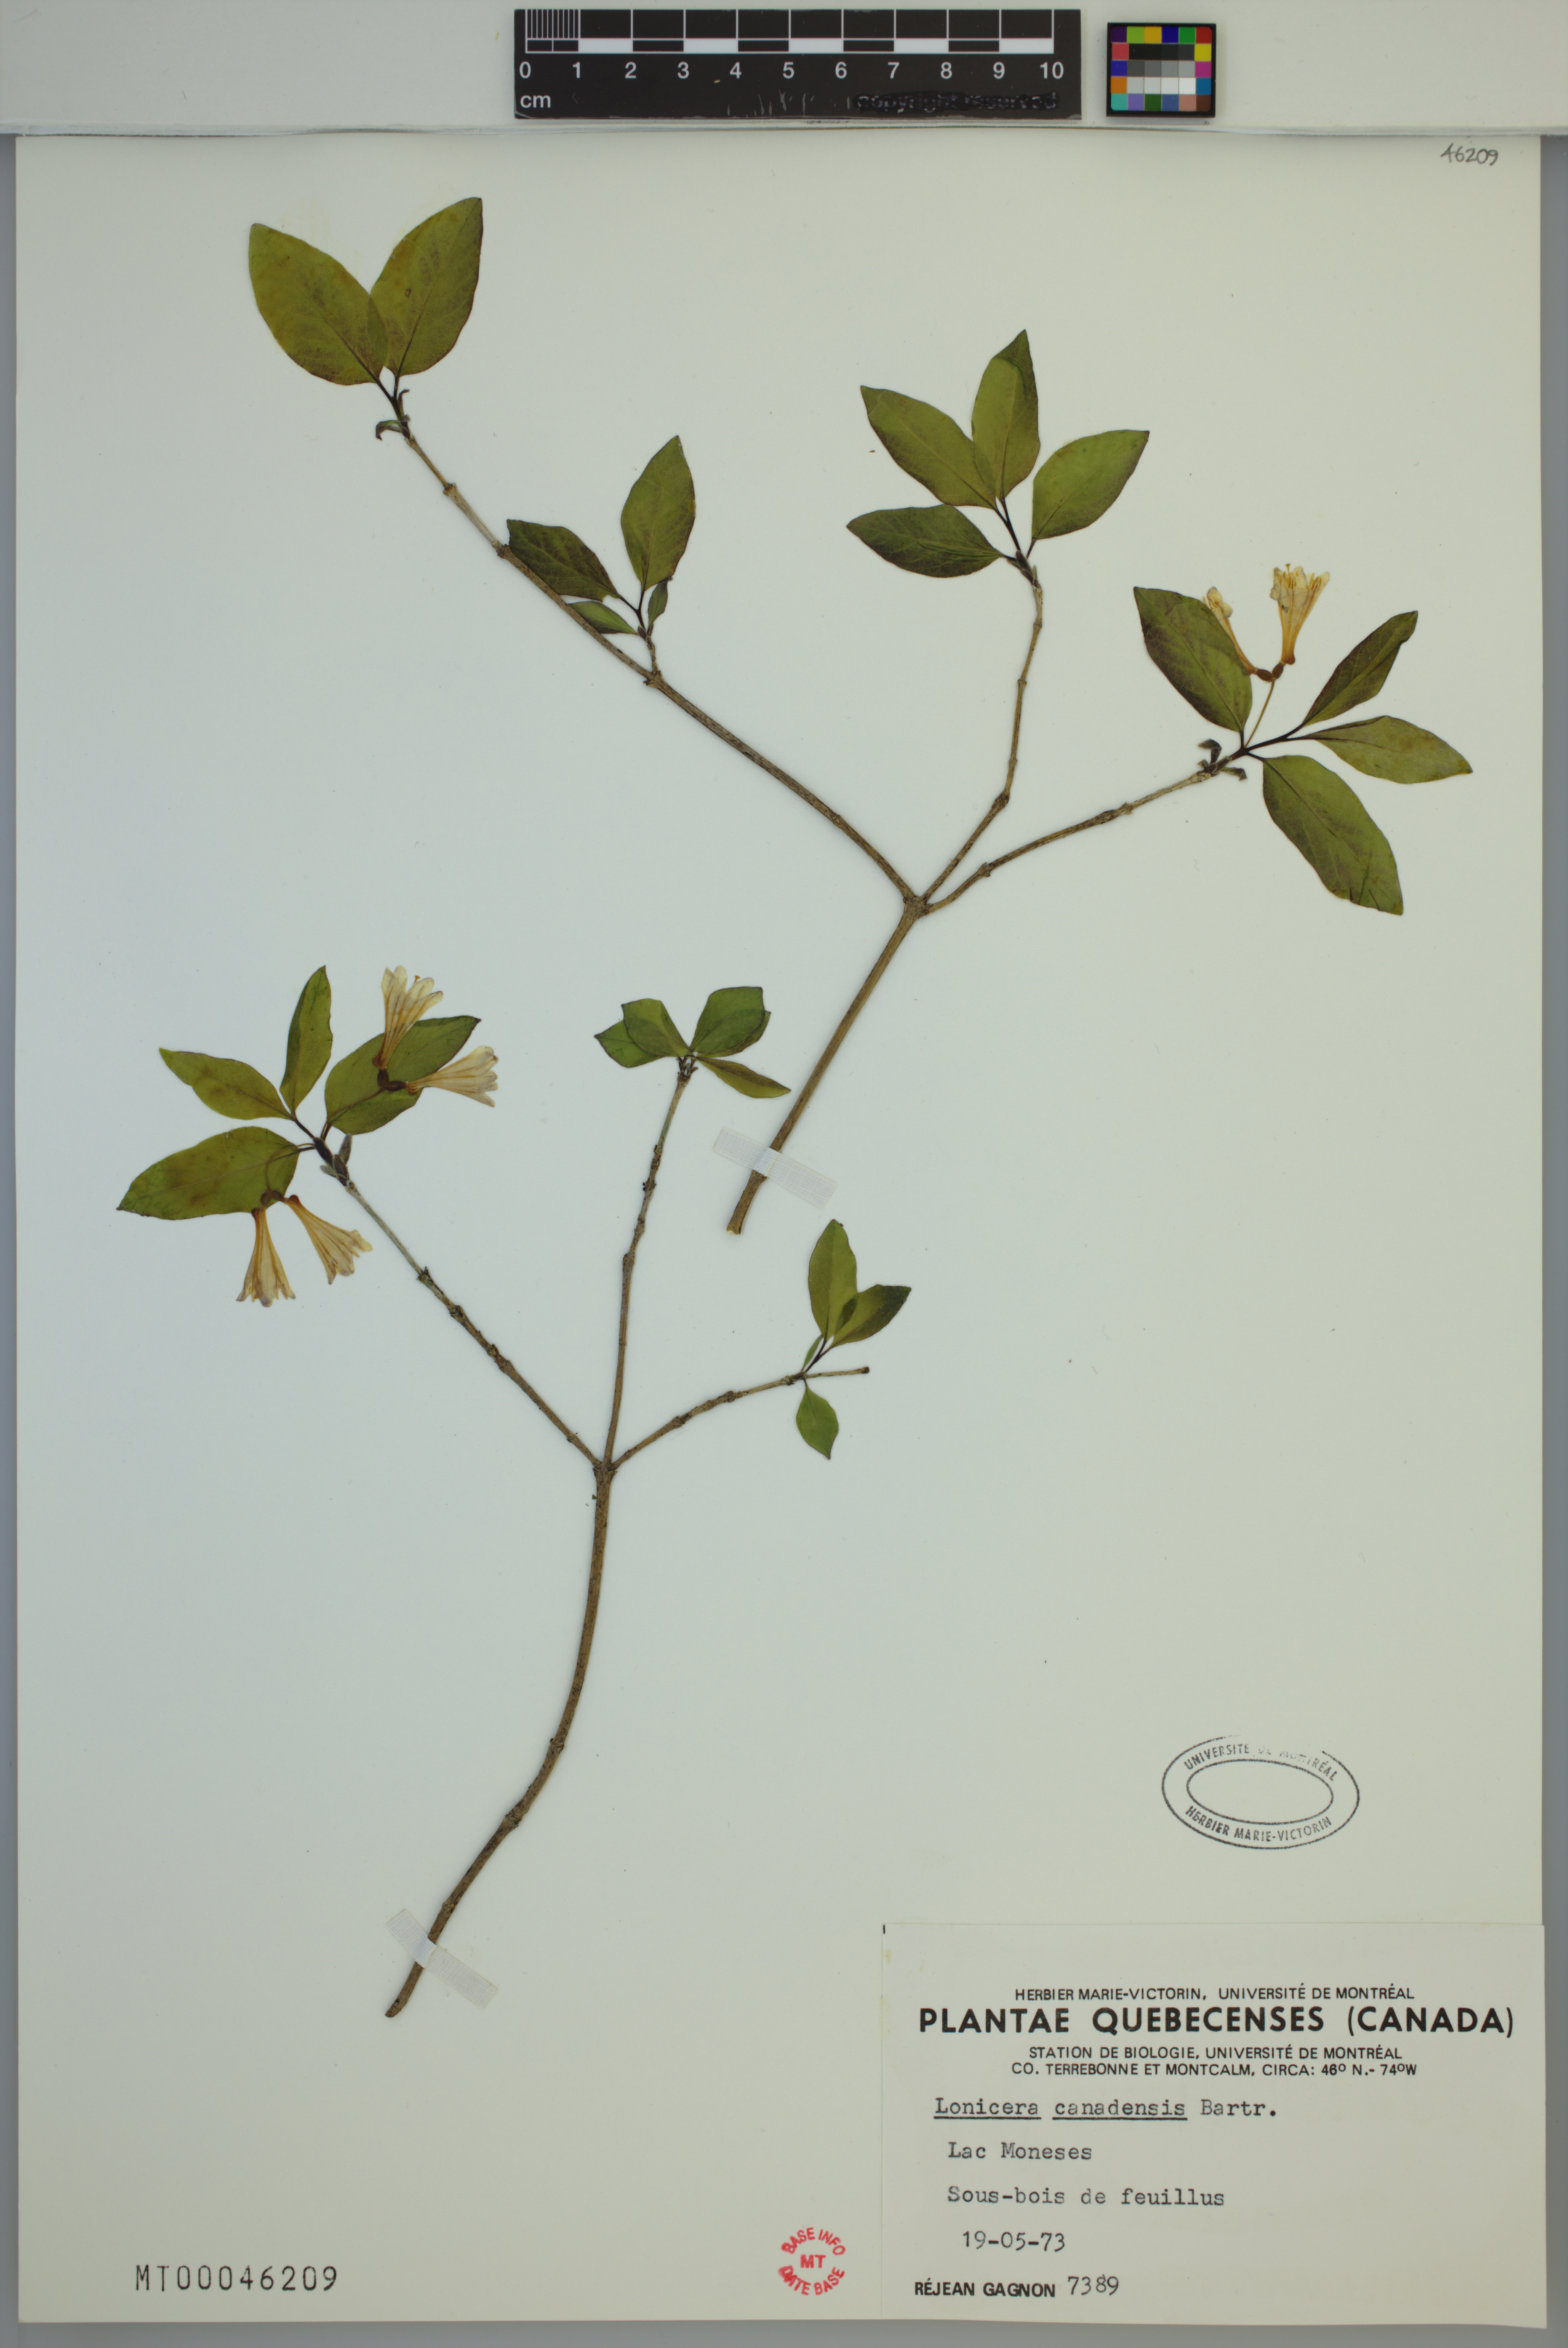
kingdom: Plantae
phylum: Tracheophyta
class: Magnoliopsida
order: Dipsacales
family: Caprifoliaceae
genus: Lonicera
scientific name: Lonicera canadensis
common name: American fly-honeysuckle
